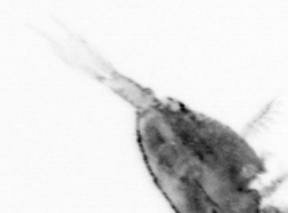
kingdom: Animalia
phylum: Arthropoda
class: Copepoda
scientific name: Copepoda
